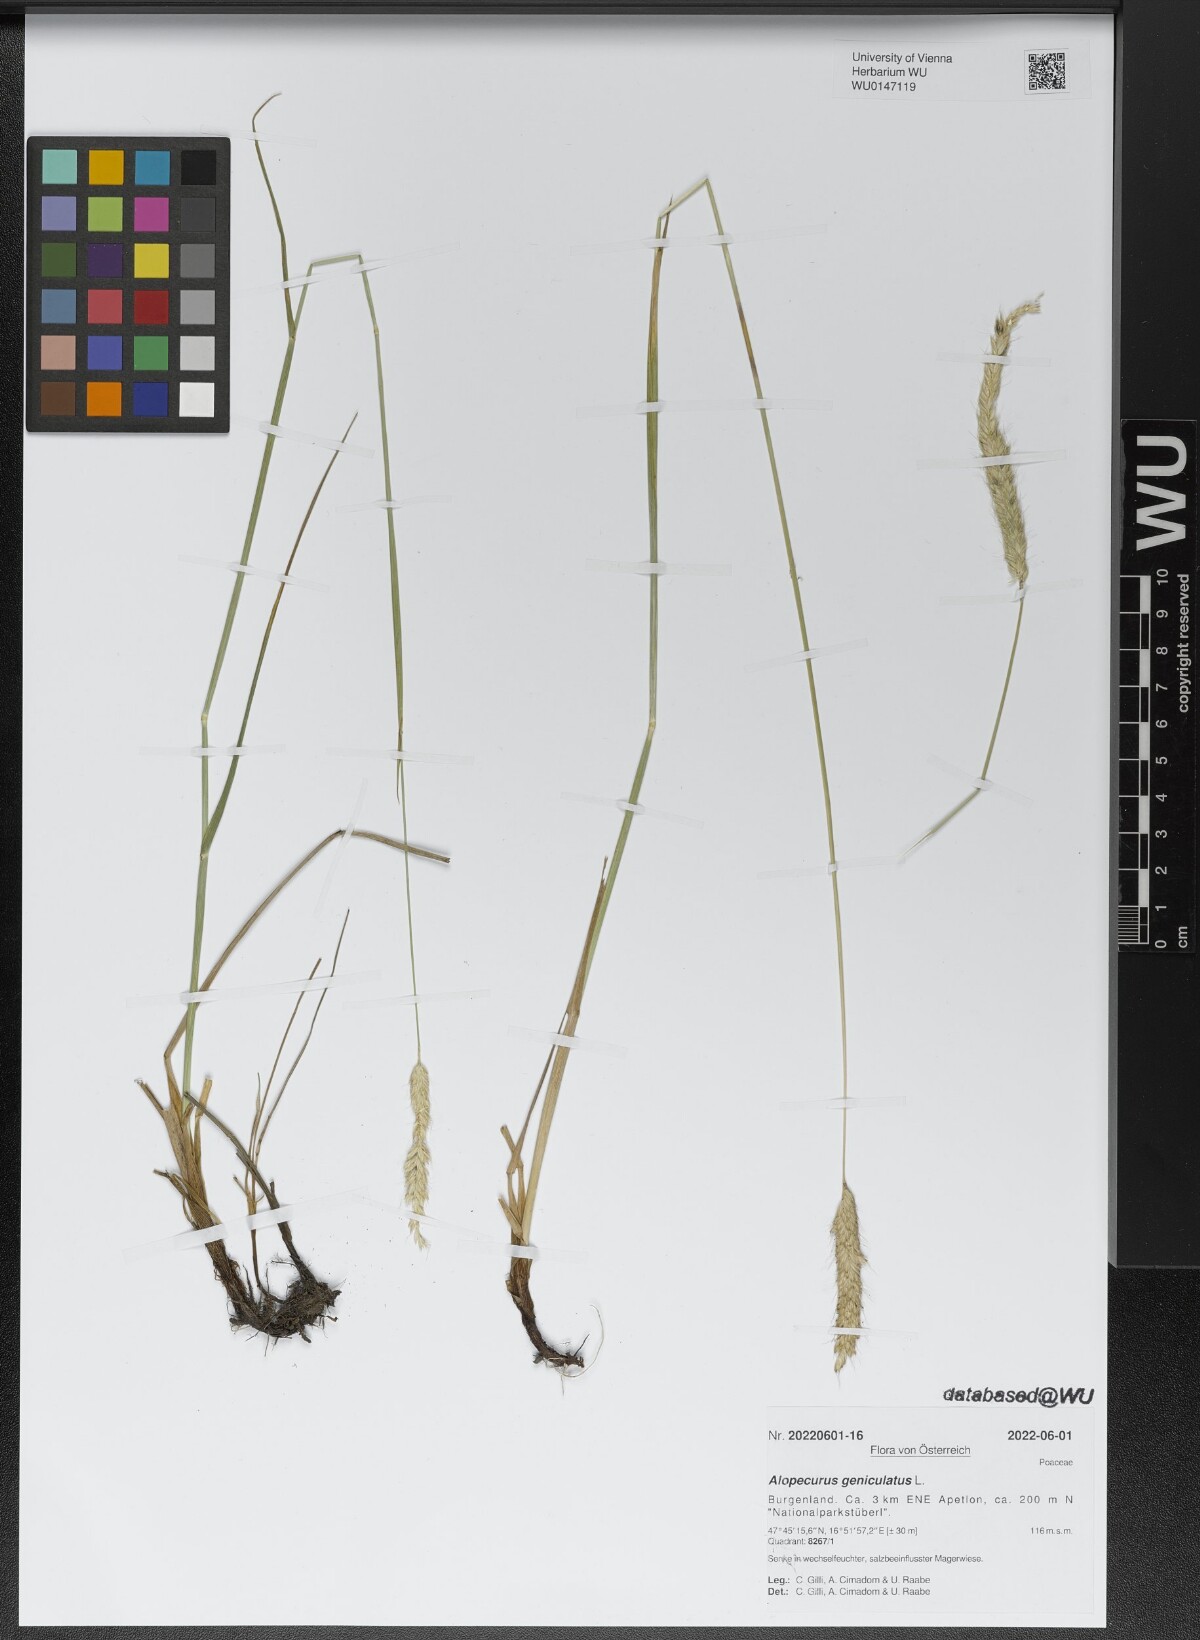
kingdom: Plantae
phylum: Tracheophyta
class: Liliopsida
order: Poales
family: Poaceae
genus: Alopecurus
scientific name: Alopecurus geniculatus
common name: Water foxtail
